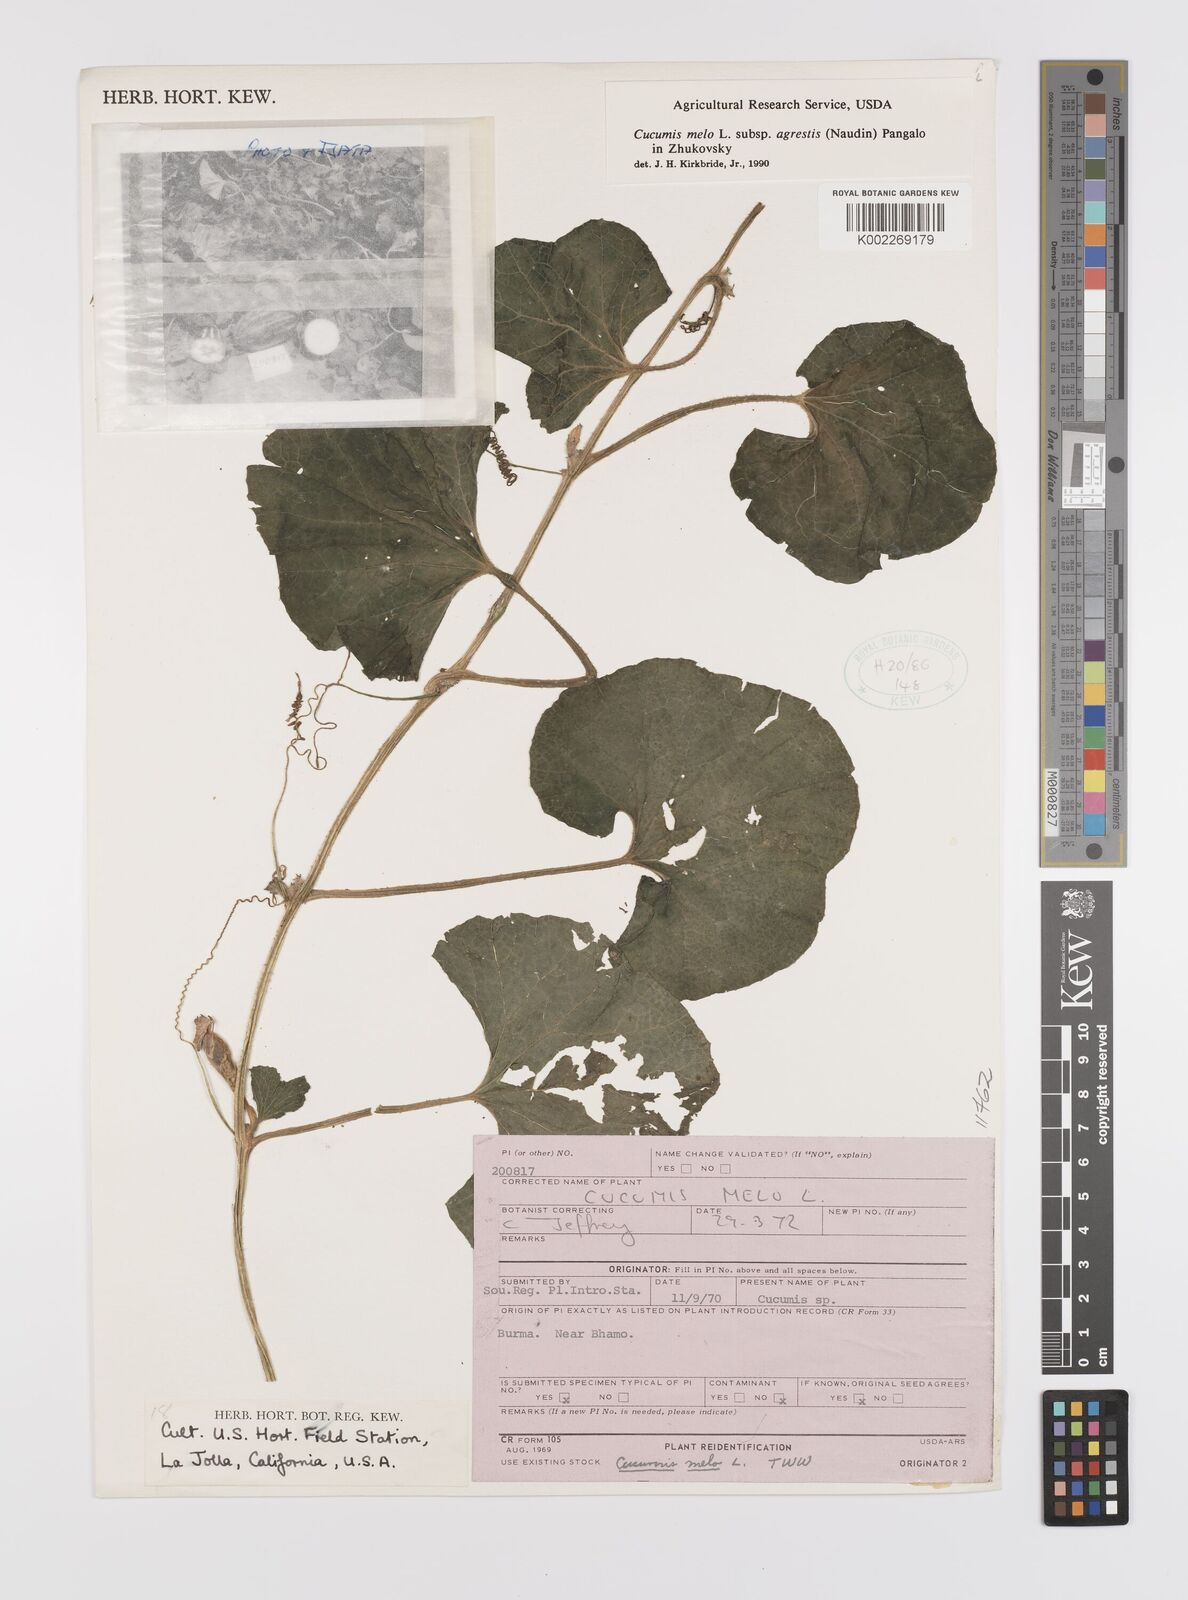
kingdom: Plantae
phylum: Tracheophyta
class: Magnoliopsida
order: Cucurbitales
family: Cucurbitaceae
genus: Cucumis
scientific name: Cucumis melo
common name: Melon
